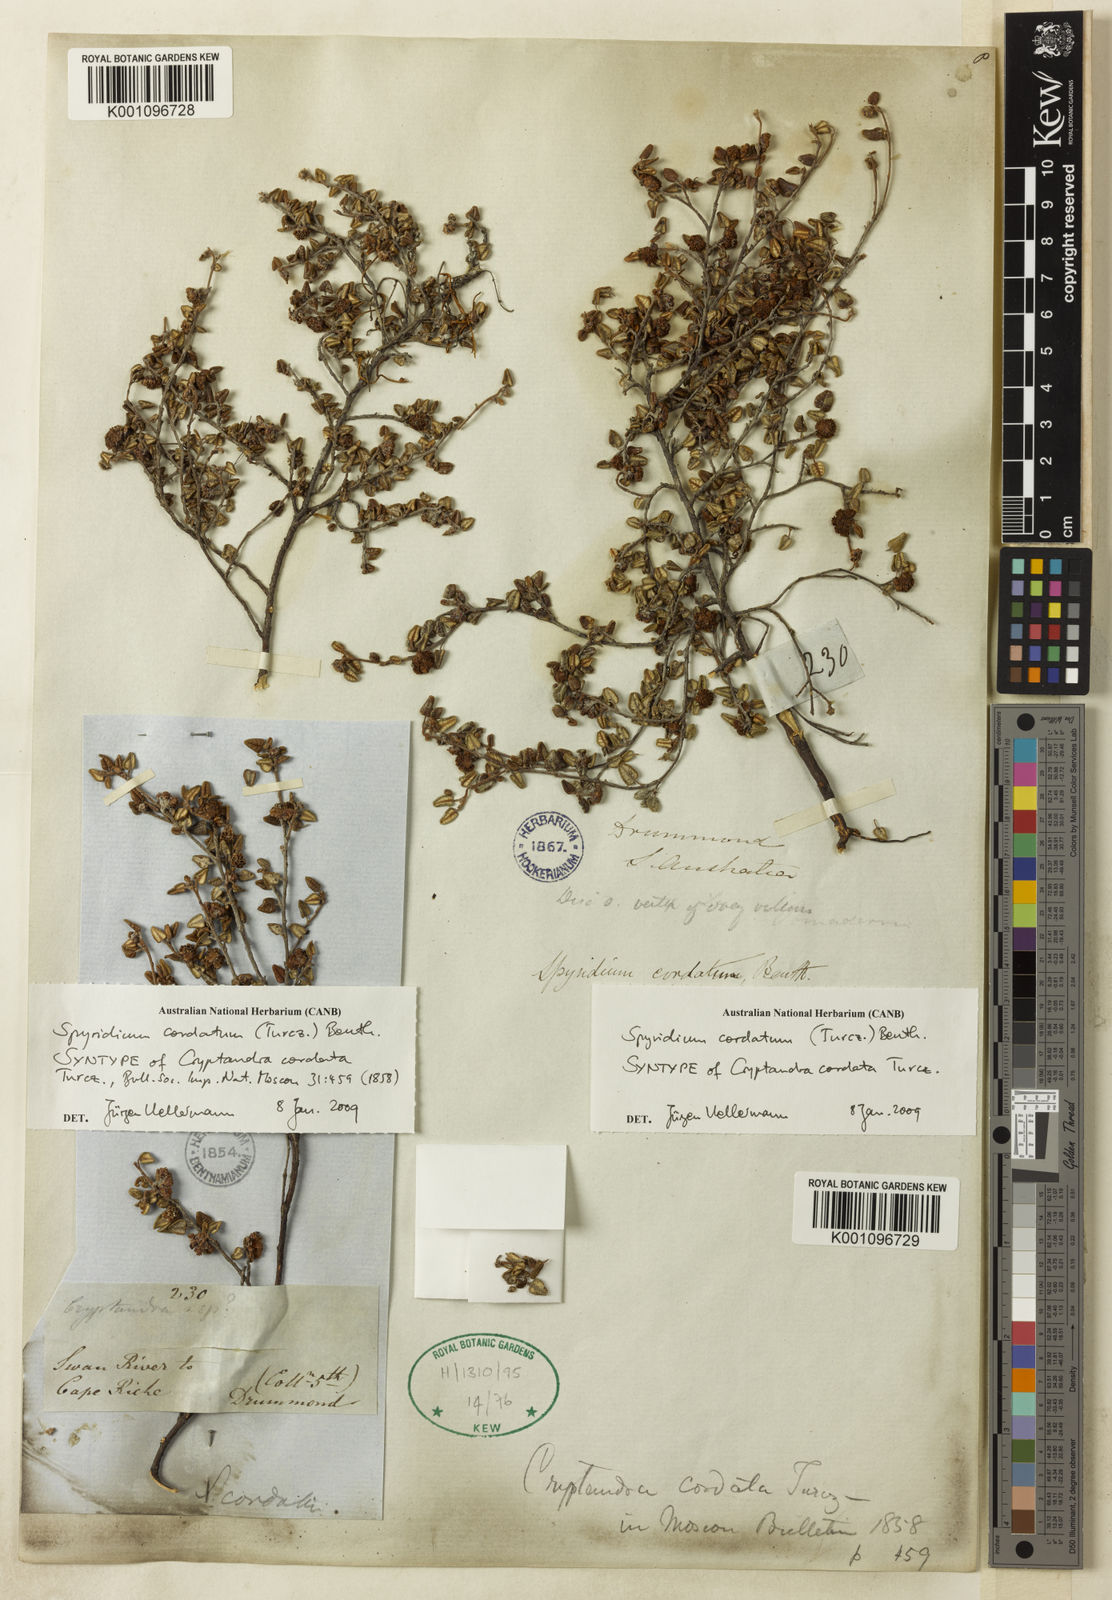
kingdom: Plantae
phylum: Tracheophyta
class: Magnoliopsida
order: Rosales
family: Rhamnaceae
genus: Spyridium
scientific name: Spyridium cordatum
